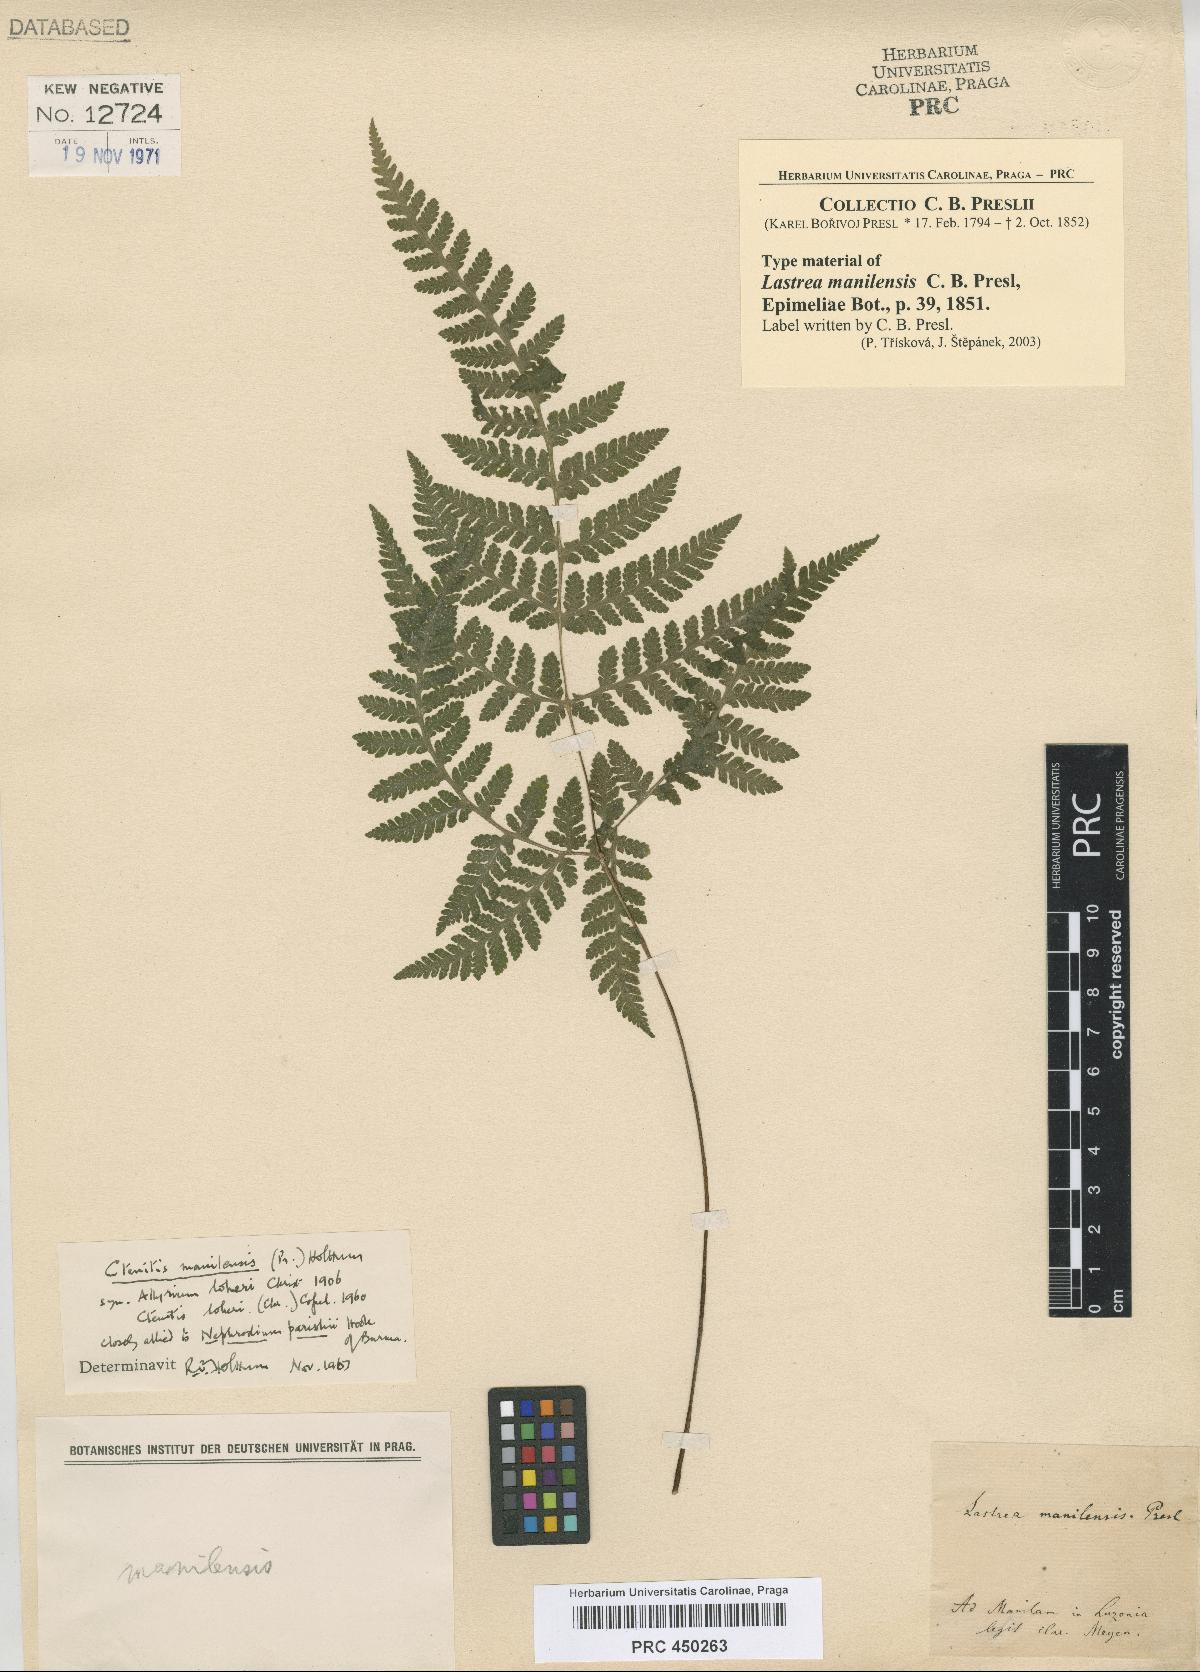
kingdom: Plantae
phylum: Tracheophyta
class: Polypodiopsida
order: Polypodiales
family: Tectariaceae
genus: Tectaria
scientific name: Tectaria manilensis
